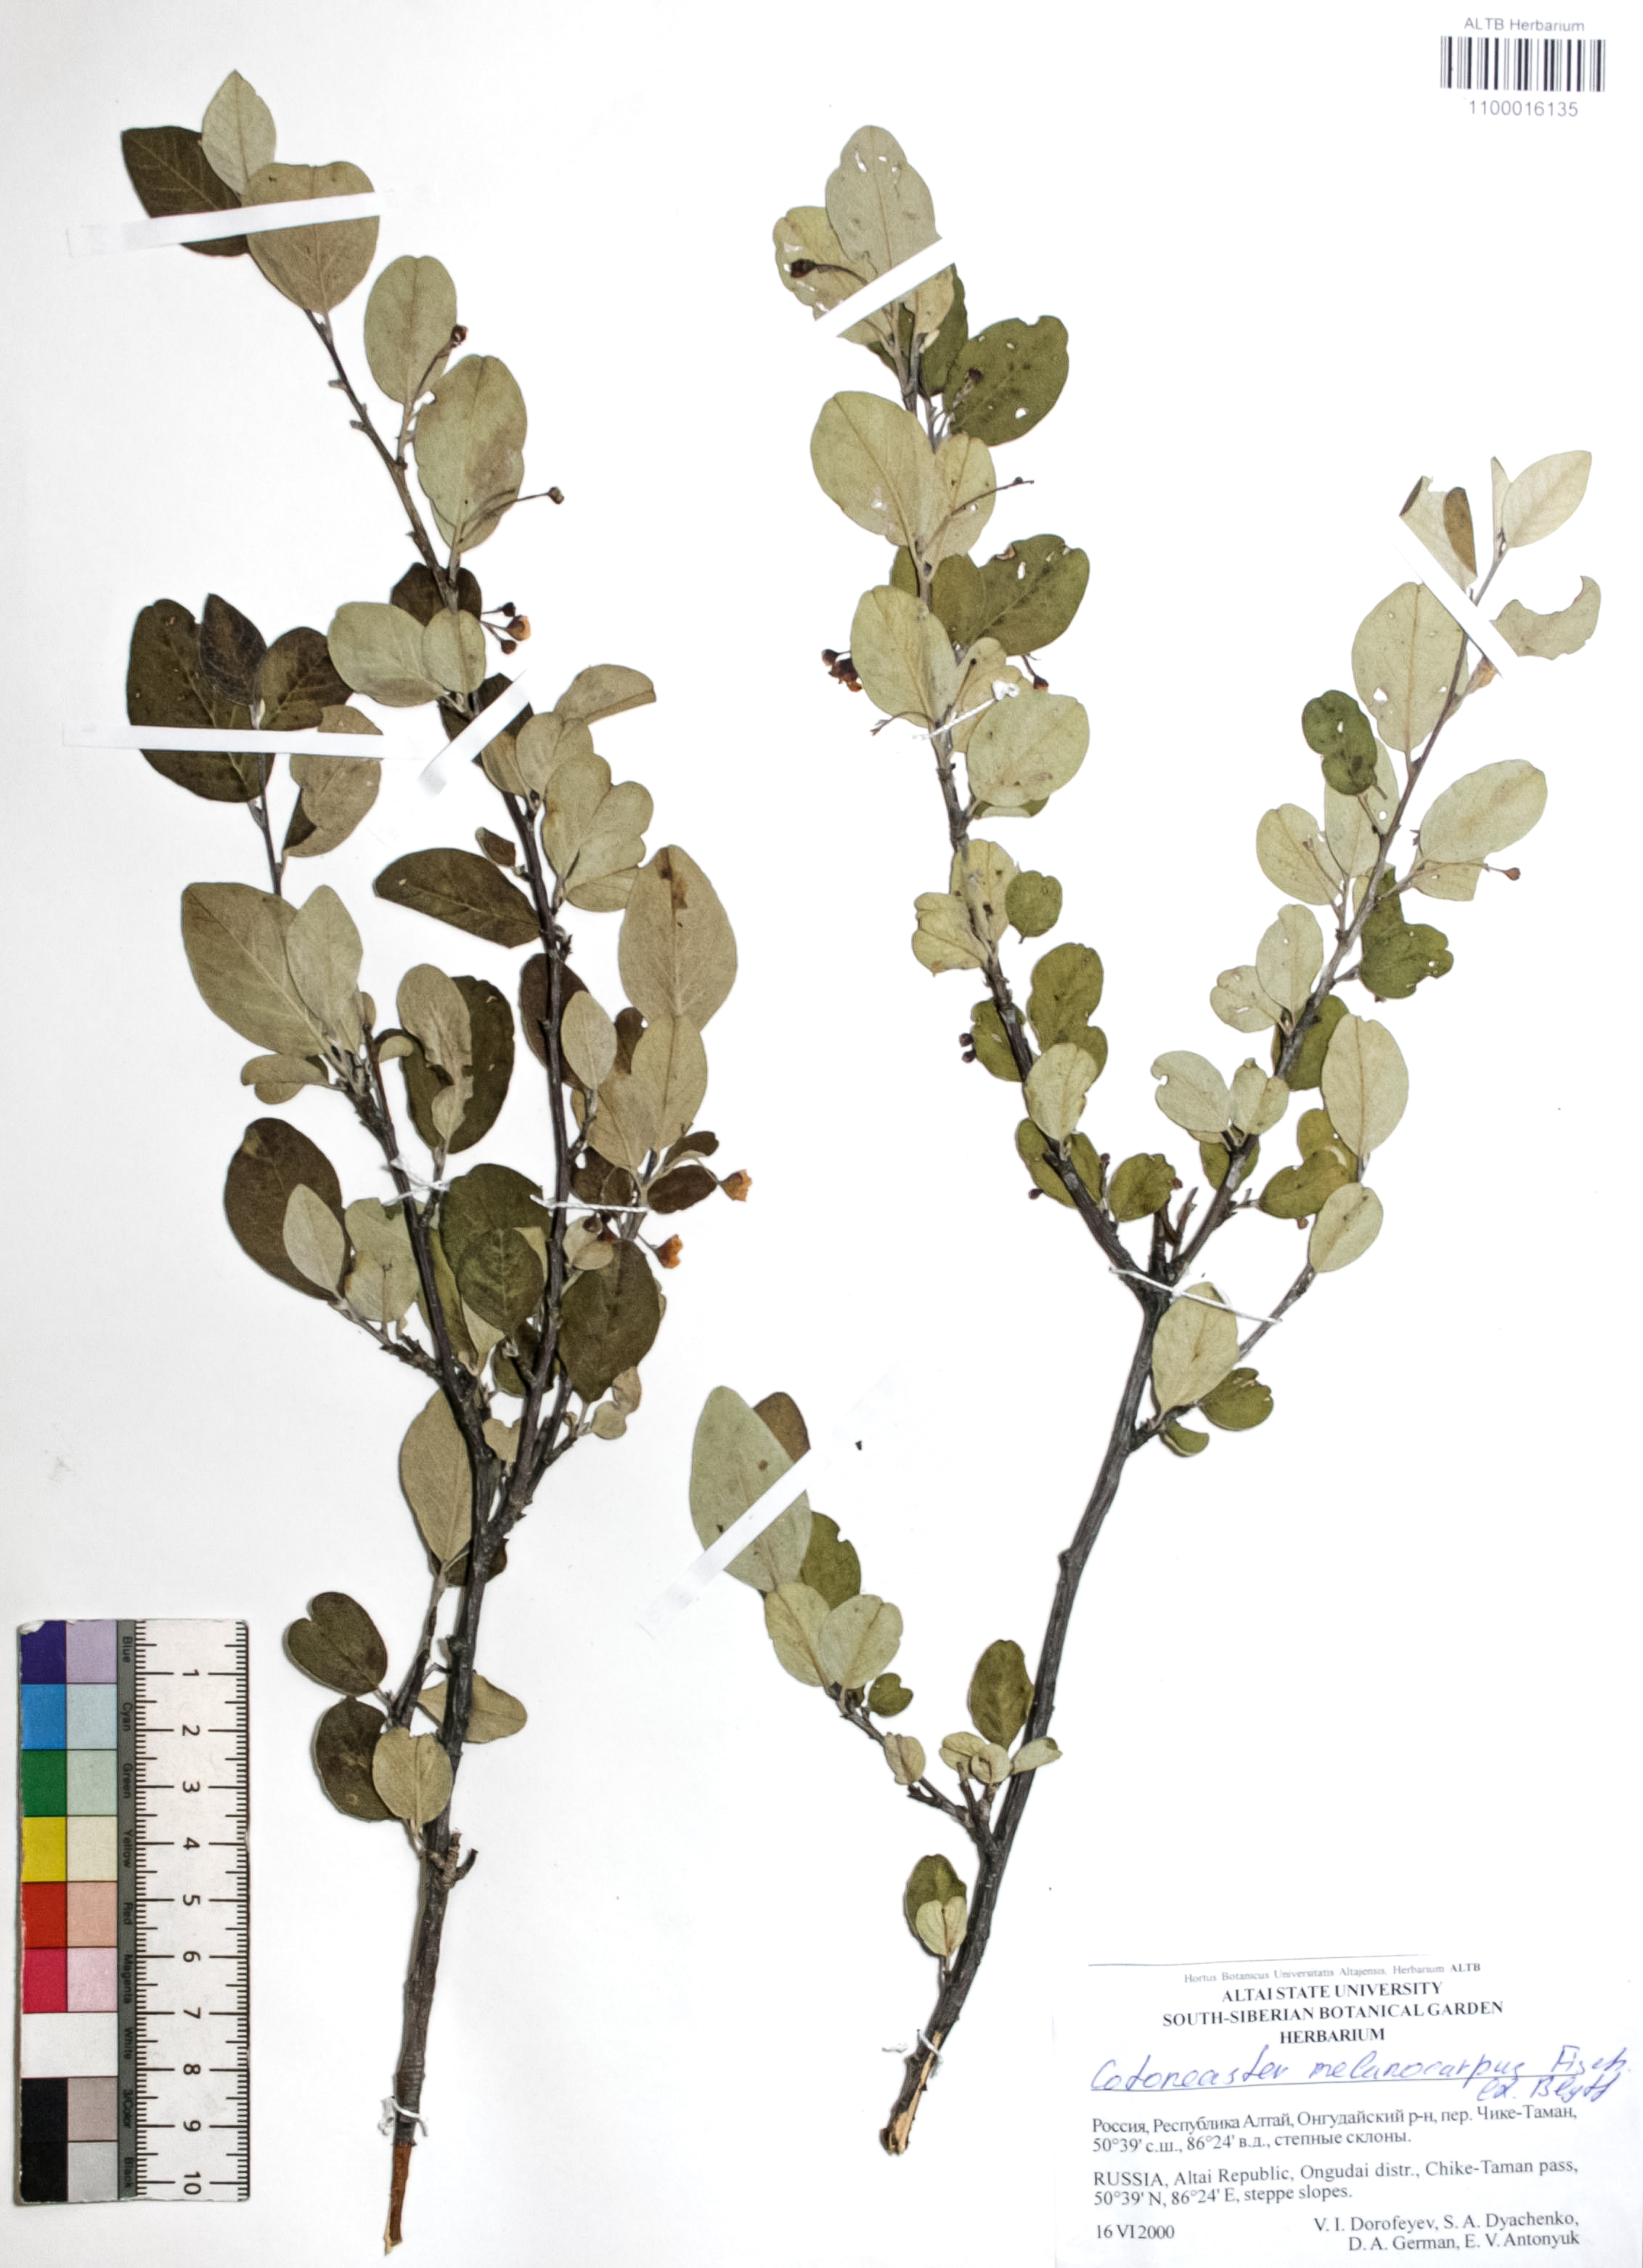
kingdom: Plantae
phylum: Tracheophyta
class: Magnoliopsida
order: Rosales
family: Rosaceae
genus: Cotoneaster
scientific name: Cotoneaster niger
